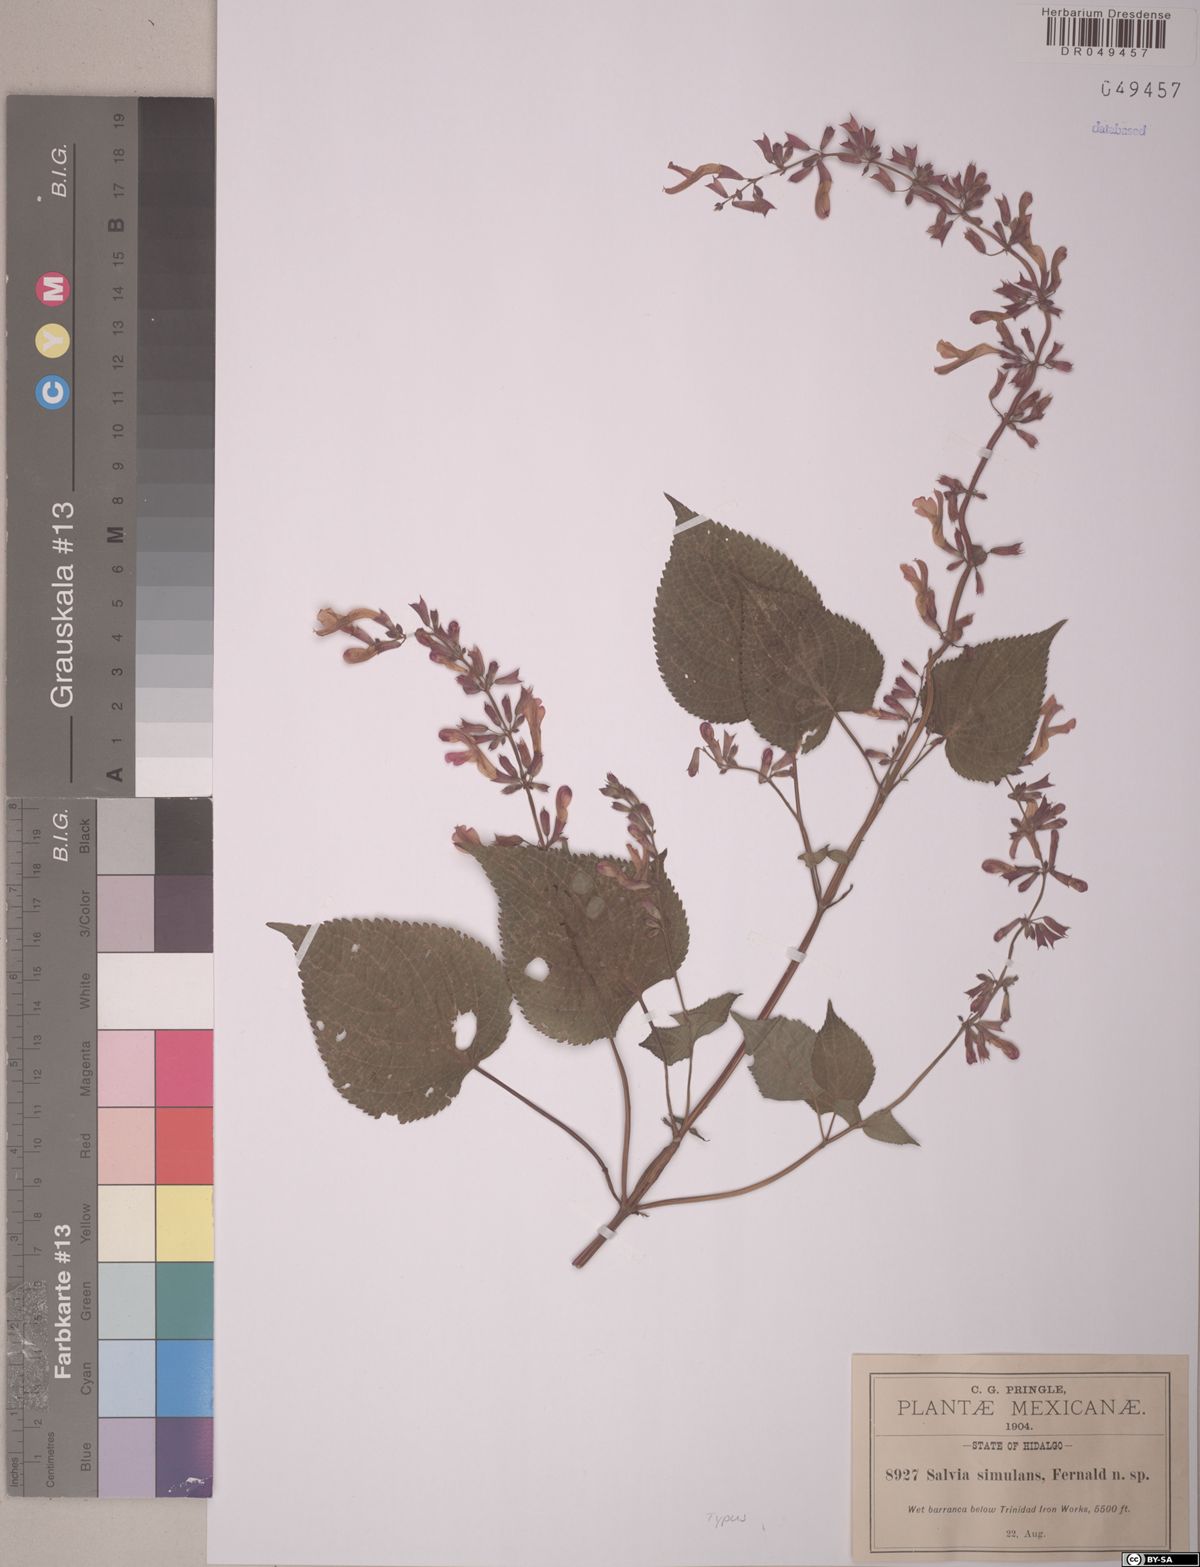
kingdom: Plantae
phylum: Tracheophyta
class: Magnoliopsida
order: Lamiales
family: Lamiaceae
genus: Salvia
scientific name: Salvia carnea
